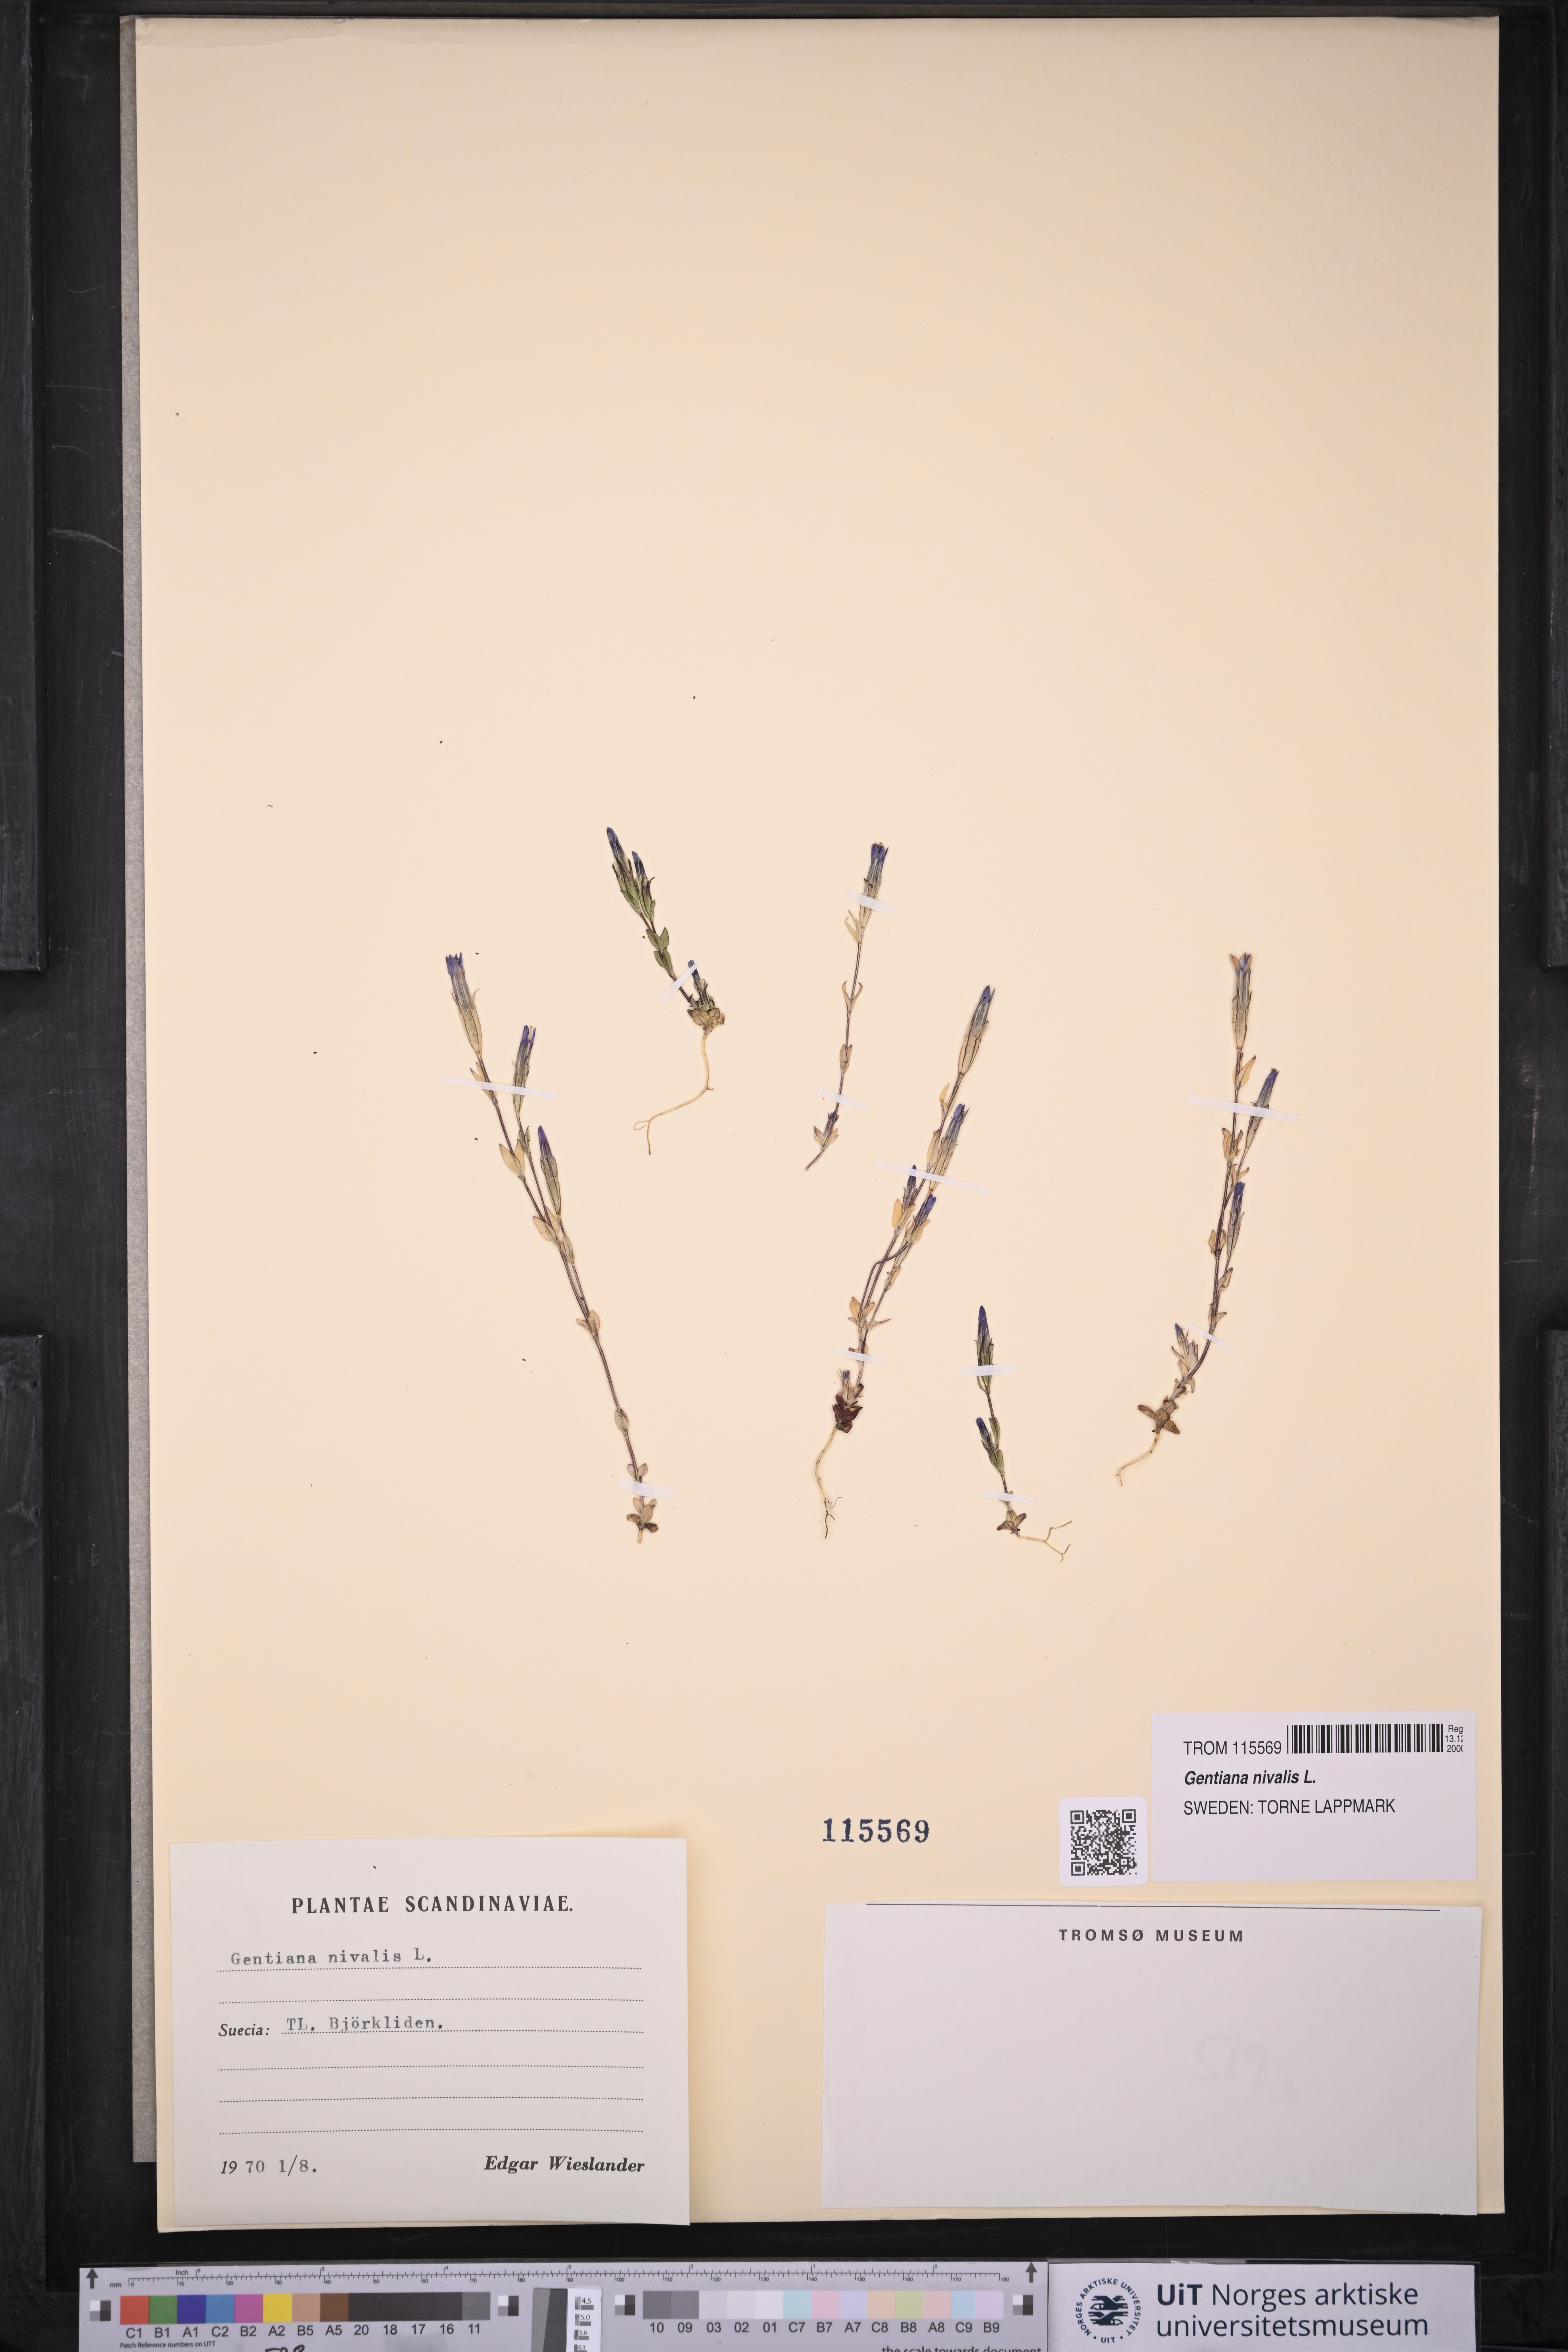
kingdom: Plantae
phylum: Tracheophyta
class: Magnoliopsida
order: Gentianales
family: Gentianaceae
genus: Gentiana
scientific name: Gentiana nivalis
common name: Alpine gentian
